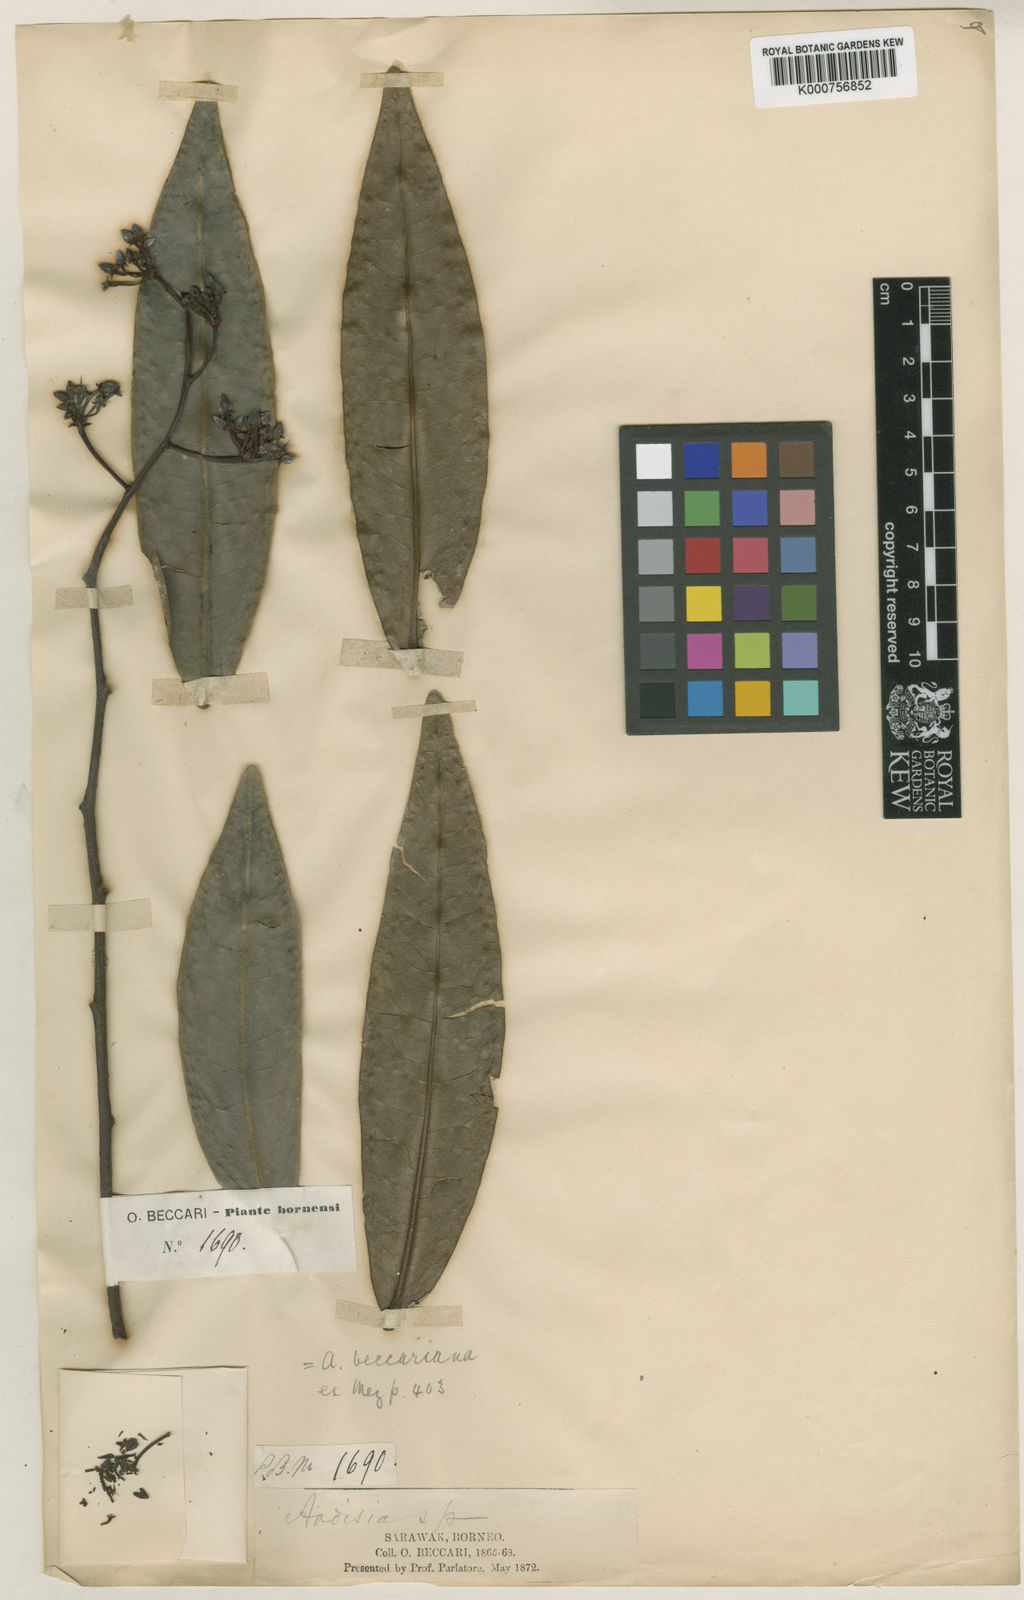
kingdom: Plantae
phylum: Tracheophyta
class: Magnoliopsida
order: Ericales
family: Primulaceae
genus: Ardisia
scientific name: Ardisia beccariana
